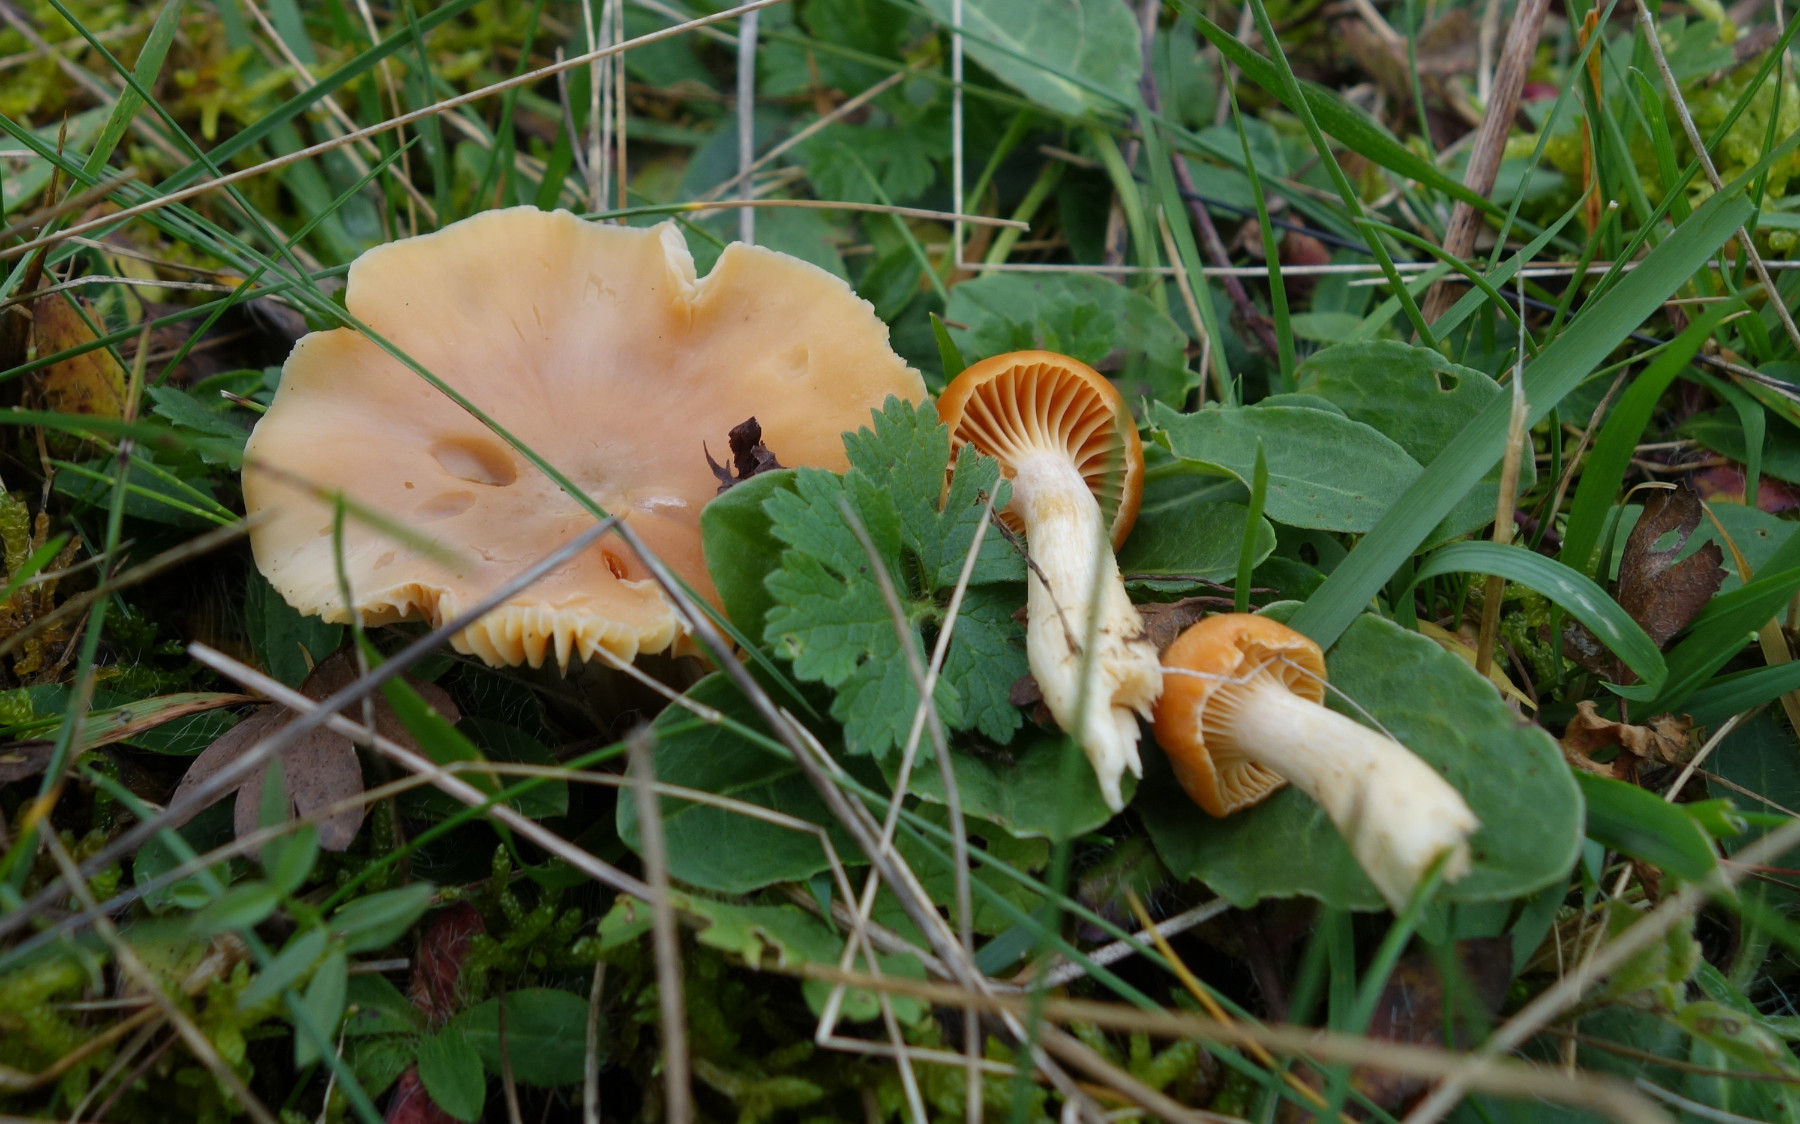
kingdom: Fungi
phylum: Basidiomycota
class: Agaricomycetes
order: Agaricales
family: Hygrophoraceae
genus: Cuphophyllus
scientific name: Cuphophyllus pratensis
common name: eng-vokshat
